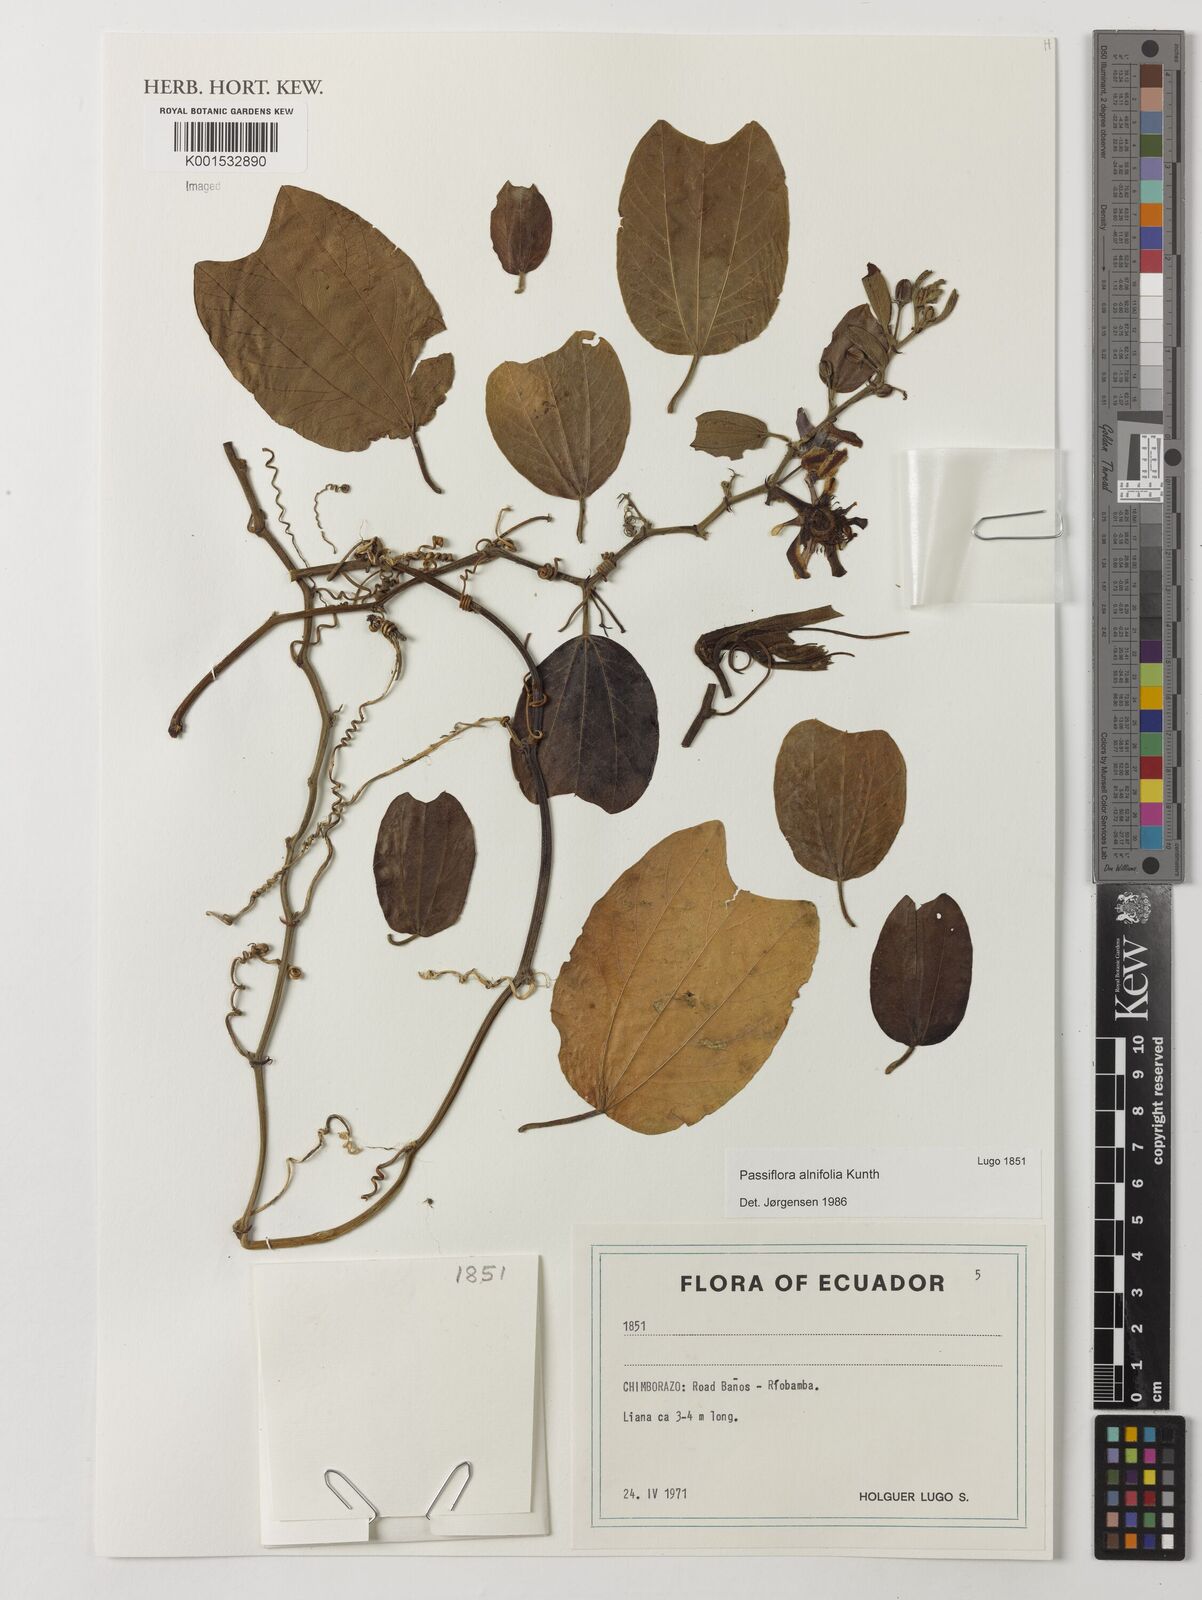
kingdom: Plantae
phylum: Tracheophyta
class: Magnoliopsida
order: Malpighiales
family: Passifloraceae
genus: Passiflora
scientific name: Passiflora alnifolia
